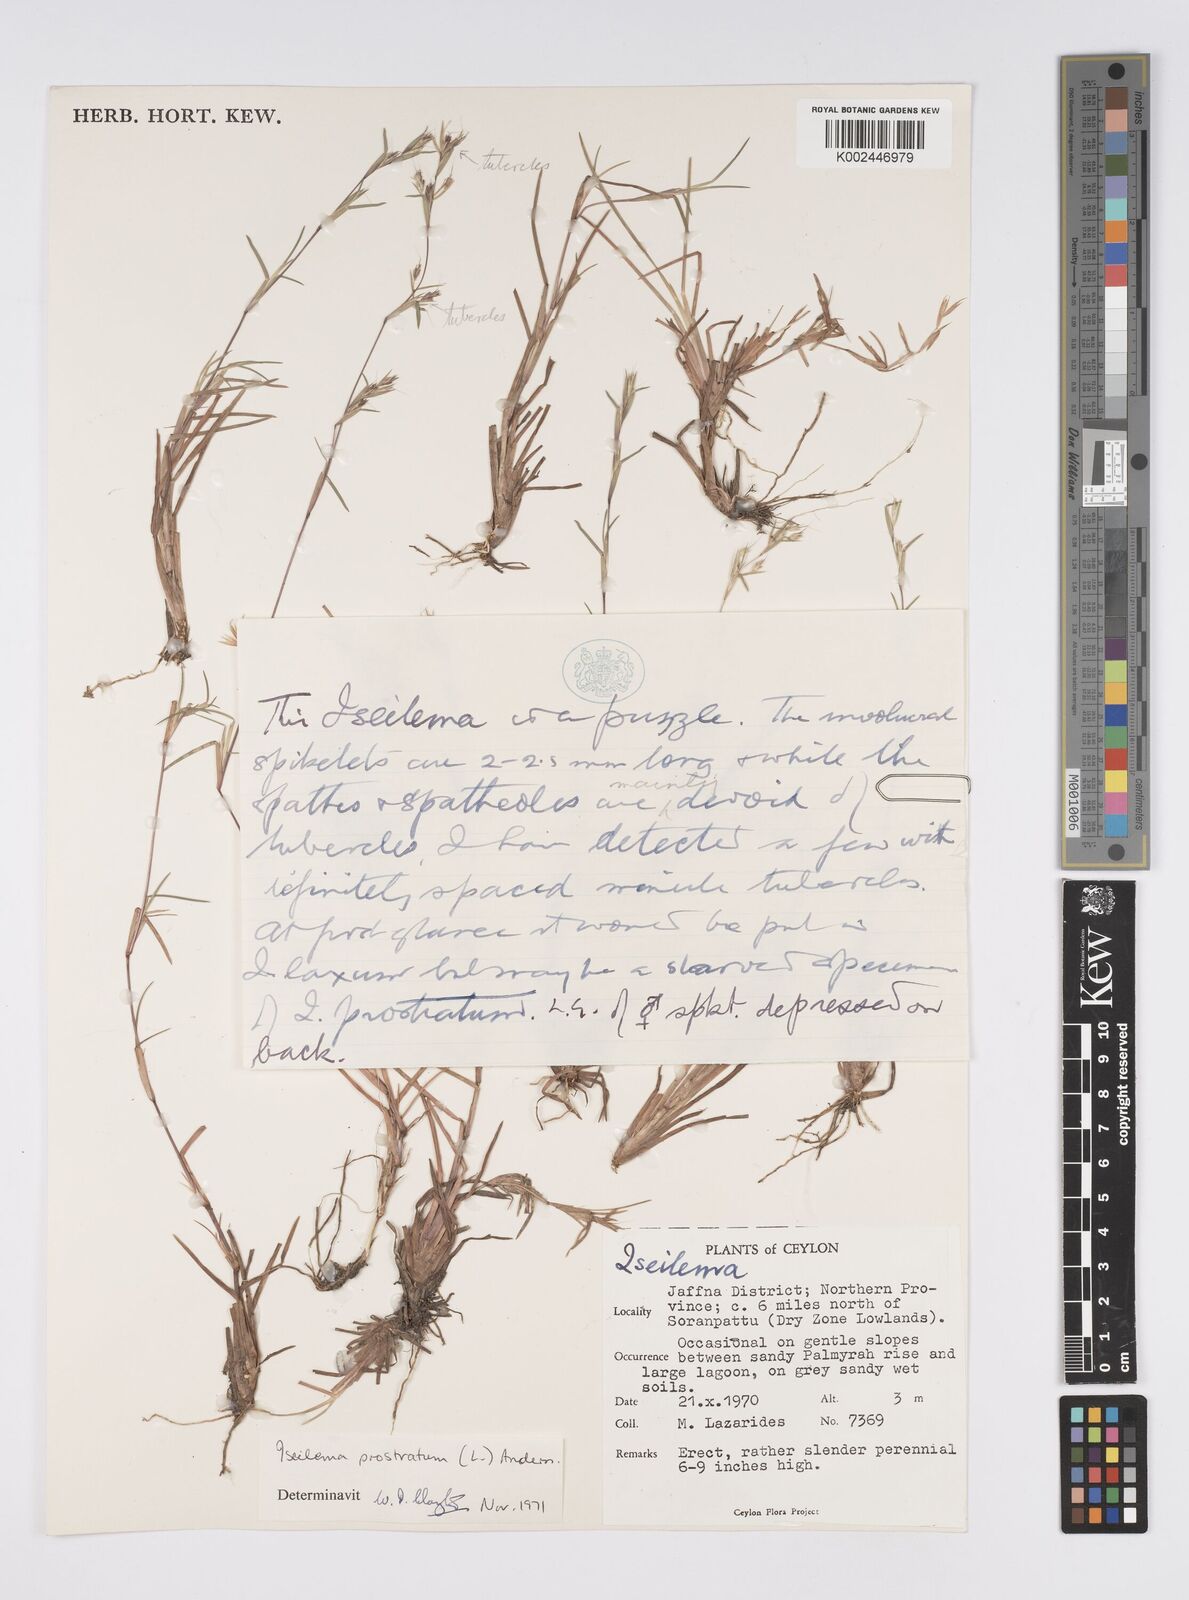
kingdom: Plantae
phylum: Tracheophyta
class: Liliopsida
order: Poales
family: Poaceae
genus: Iseilema
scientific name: Iseilema prostratum
